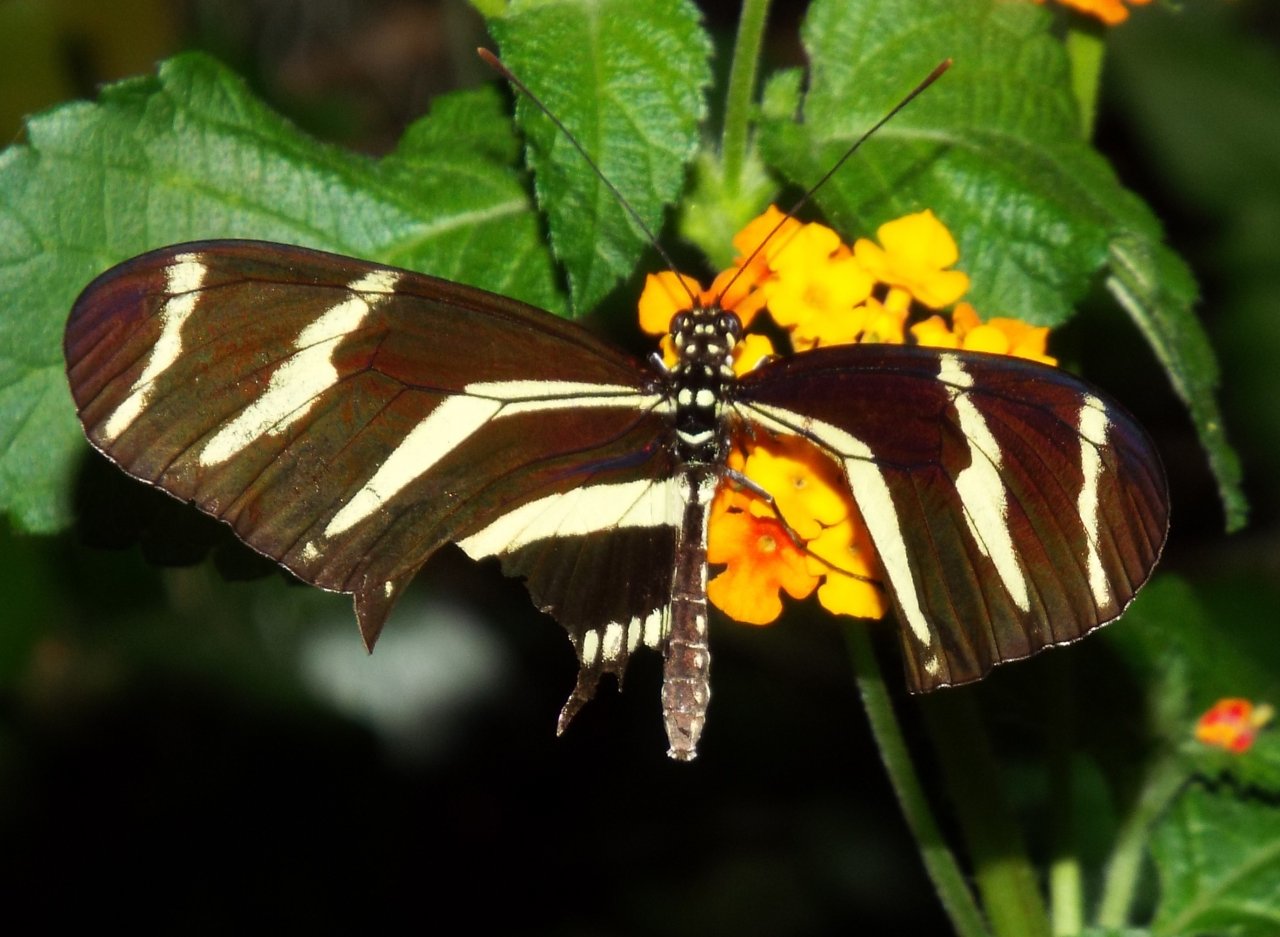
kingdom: Animalia
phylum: Arthropoda
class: Insecta
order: Lepidoptera
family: Nymphalidae
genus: Heliconius
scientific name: Heliconius charithonia
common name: Zebra Longwing
